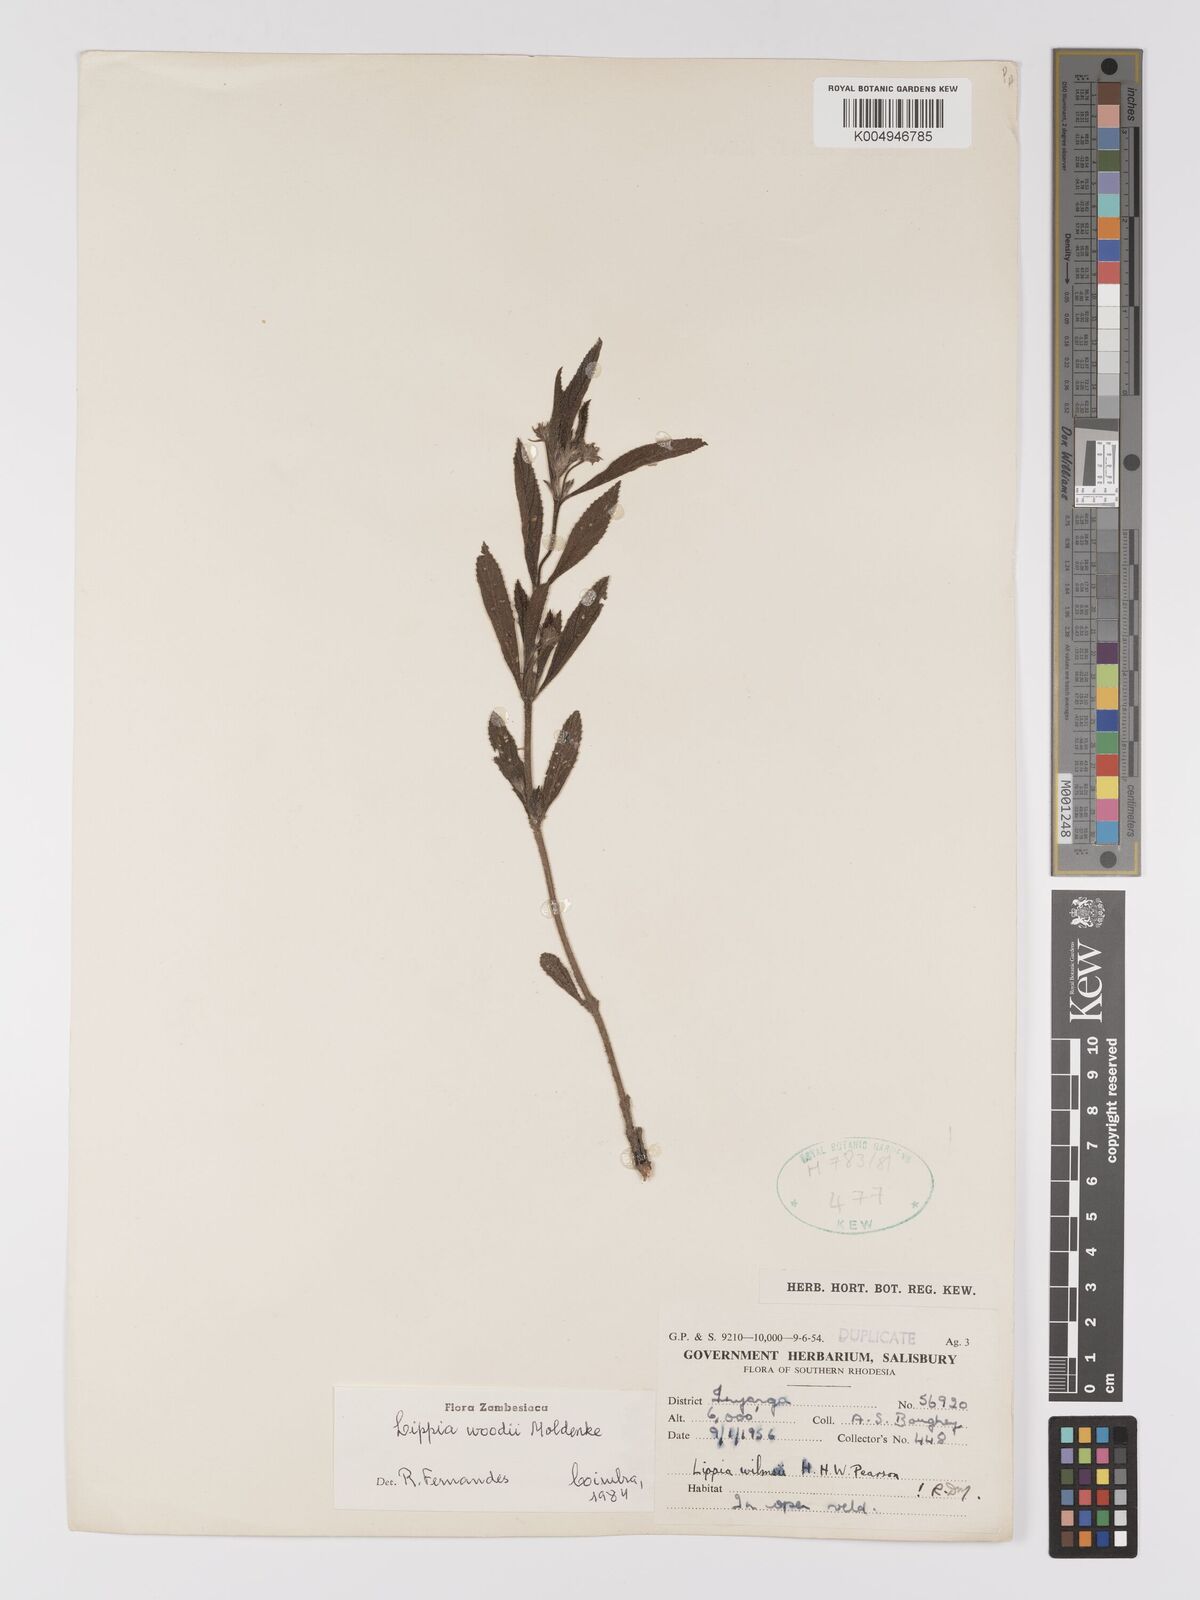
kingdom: Plantae
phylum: Tracheophyta
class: Magnoliopsida
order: Lamiales
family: Verbenaceae
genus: Lippia
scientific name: Lippia woodii
